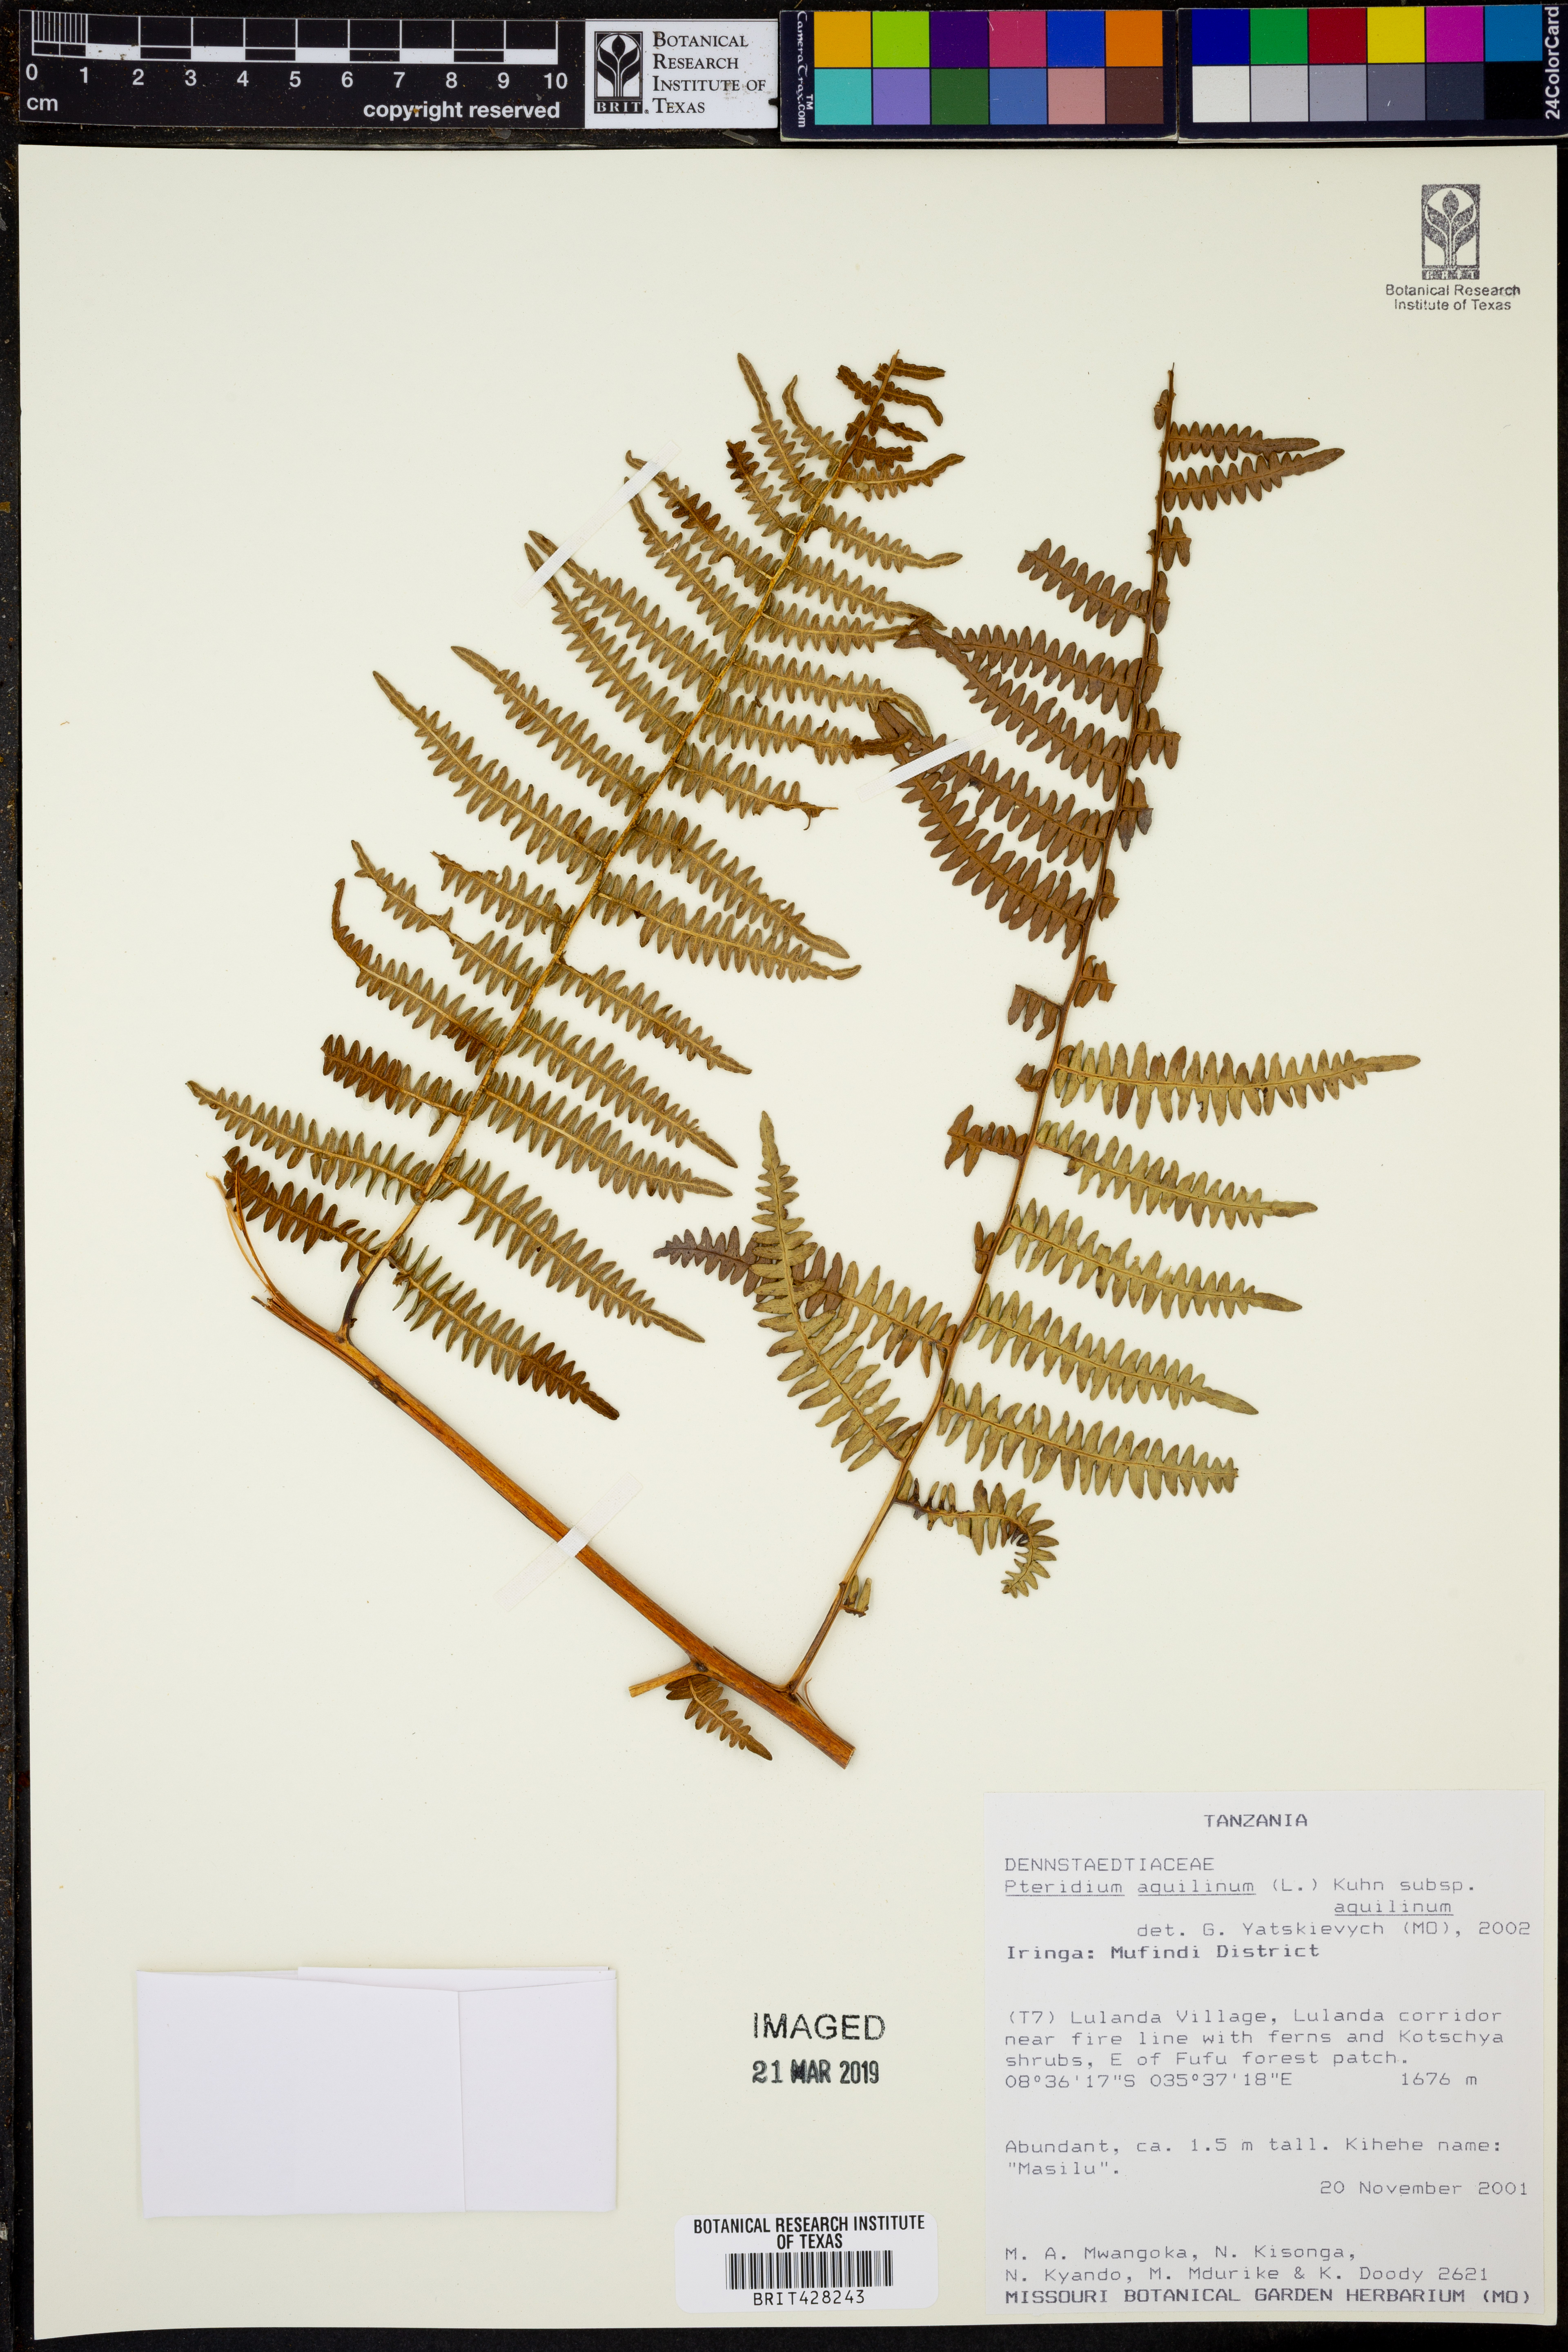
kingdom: Plantae
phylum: Tracheophyta
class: Polypodiopsida
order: Polypodiales
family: Dennstaedtiaceae
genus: Pteridium
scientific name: Pteridium aquilinum
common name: Bracken
